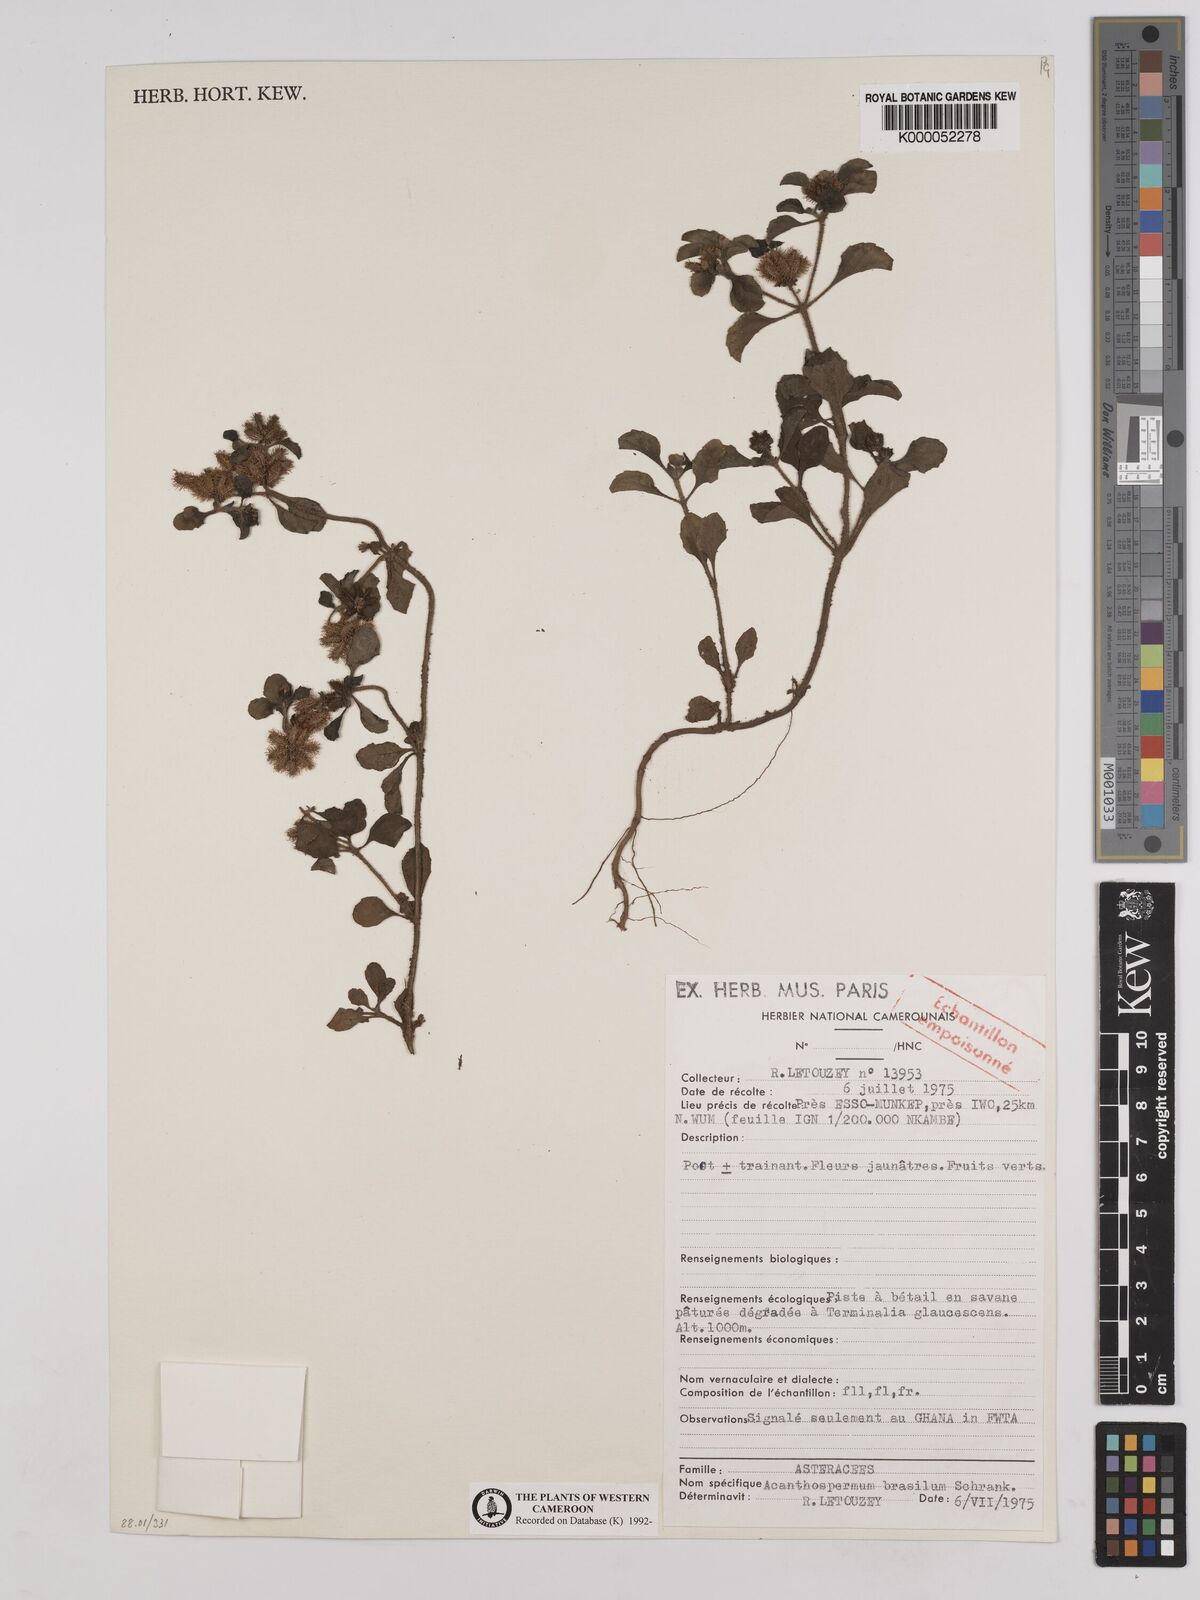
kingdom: Plantae
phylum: Tracheophyta
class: Magnoliopsida
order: Asterales
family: Asteraceae
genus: Acanthospermum
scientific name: Acanthospermum australe
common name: Paraguayan starbur
